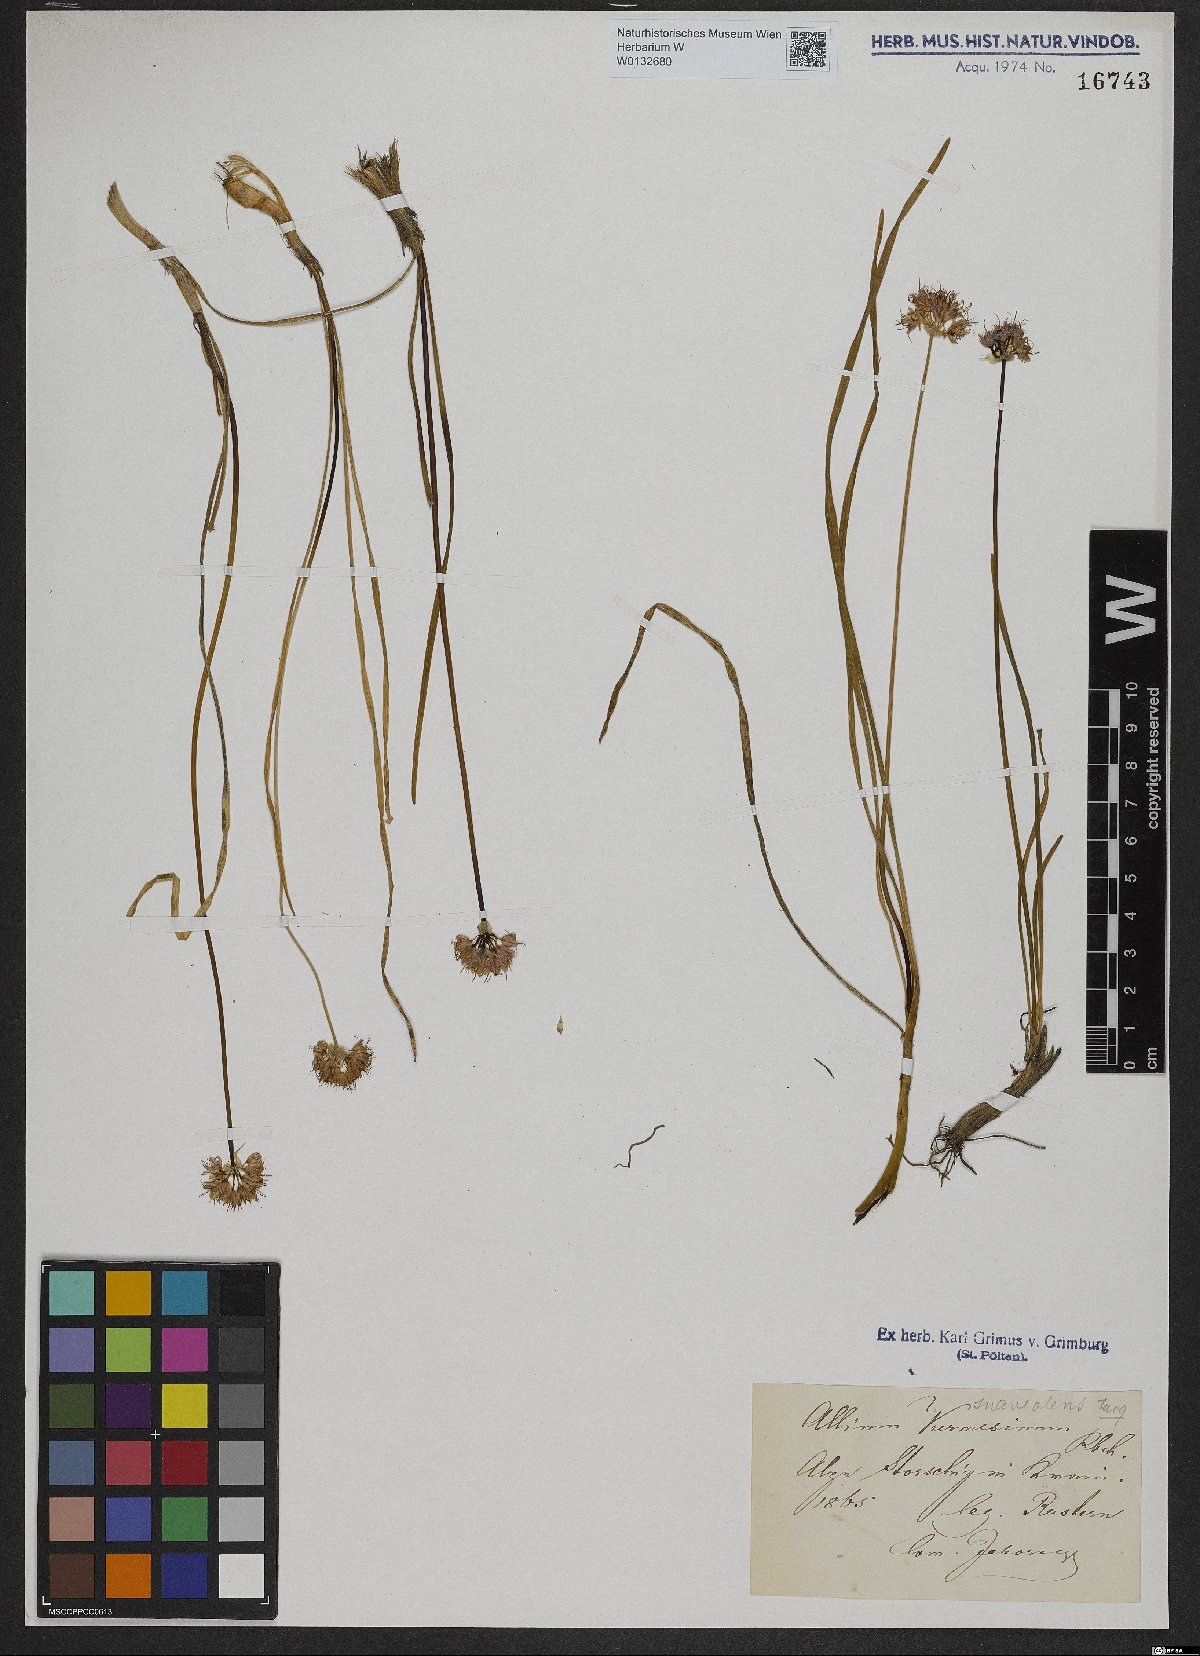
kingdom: Plantae
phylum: Tracheophyta
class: Liliopsida
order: Asparagales
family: Amaryllidaceae
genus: Allium
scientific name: Allium kermesinum
